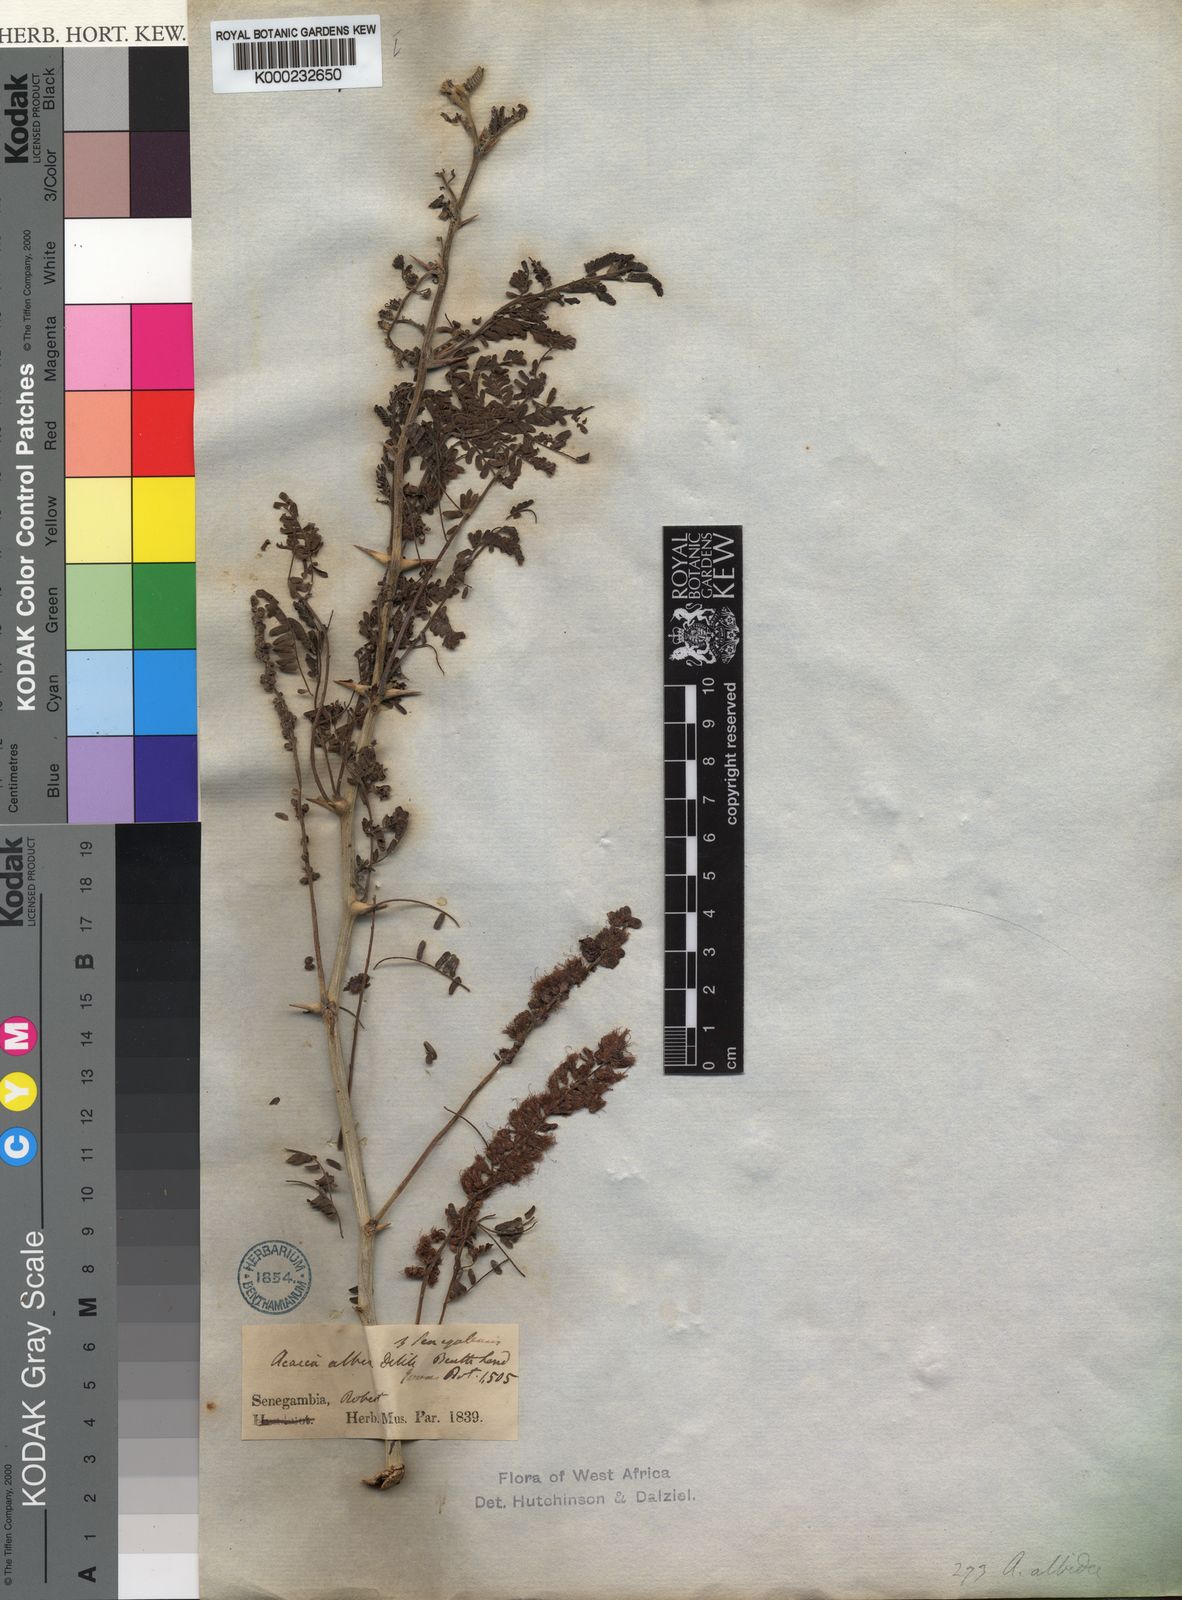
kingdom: Plantae
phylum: Tracheophyta
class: Magnoliopsida
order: Fabales
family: Fabaceae
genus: Faidherbia
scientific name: Faidherbia albida
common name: Anatree
